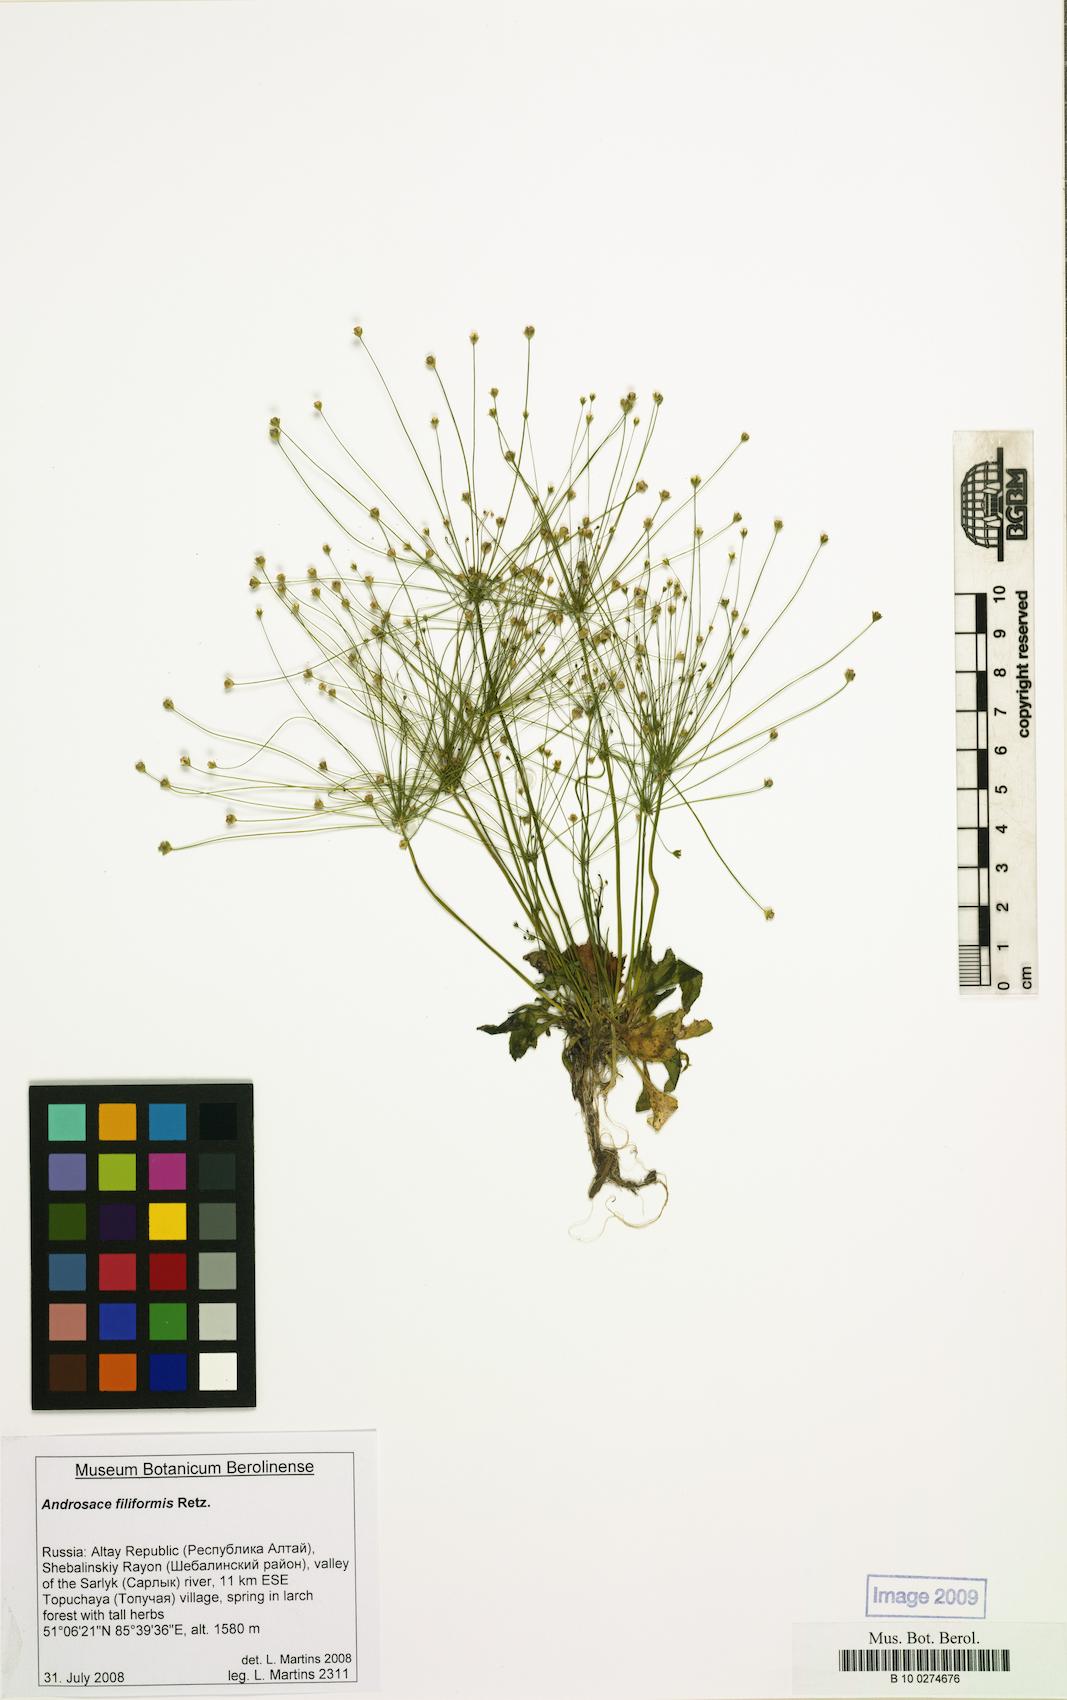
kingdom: Plantae
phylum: Tracheophyta
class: Magnoliopsida
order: Ericales
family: Primulaceae
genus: Androsace
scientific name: Androsace filiformis
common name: Filiform rock jasmine
